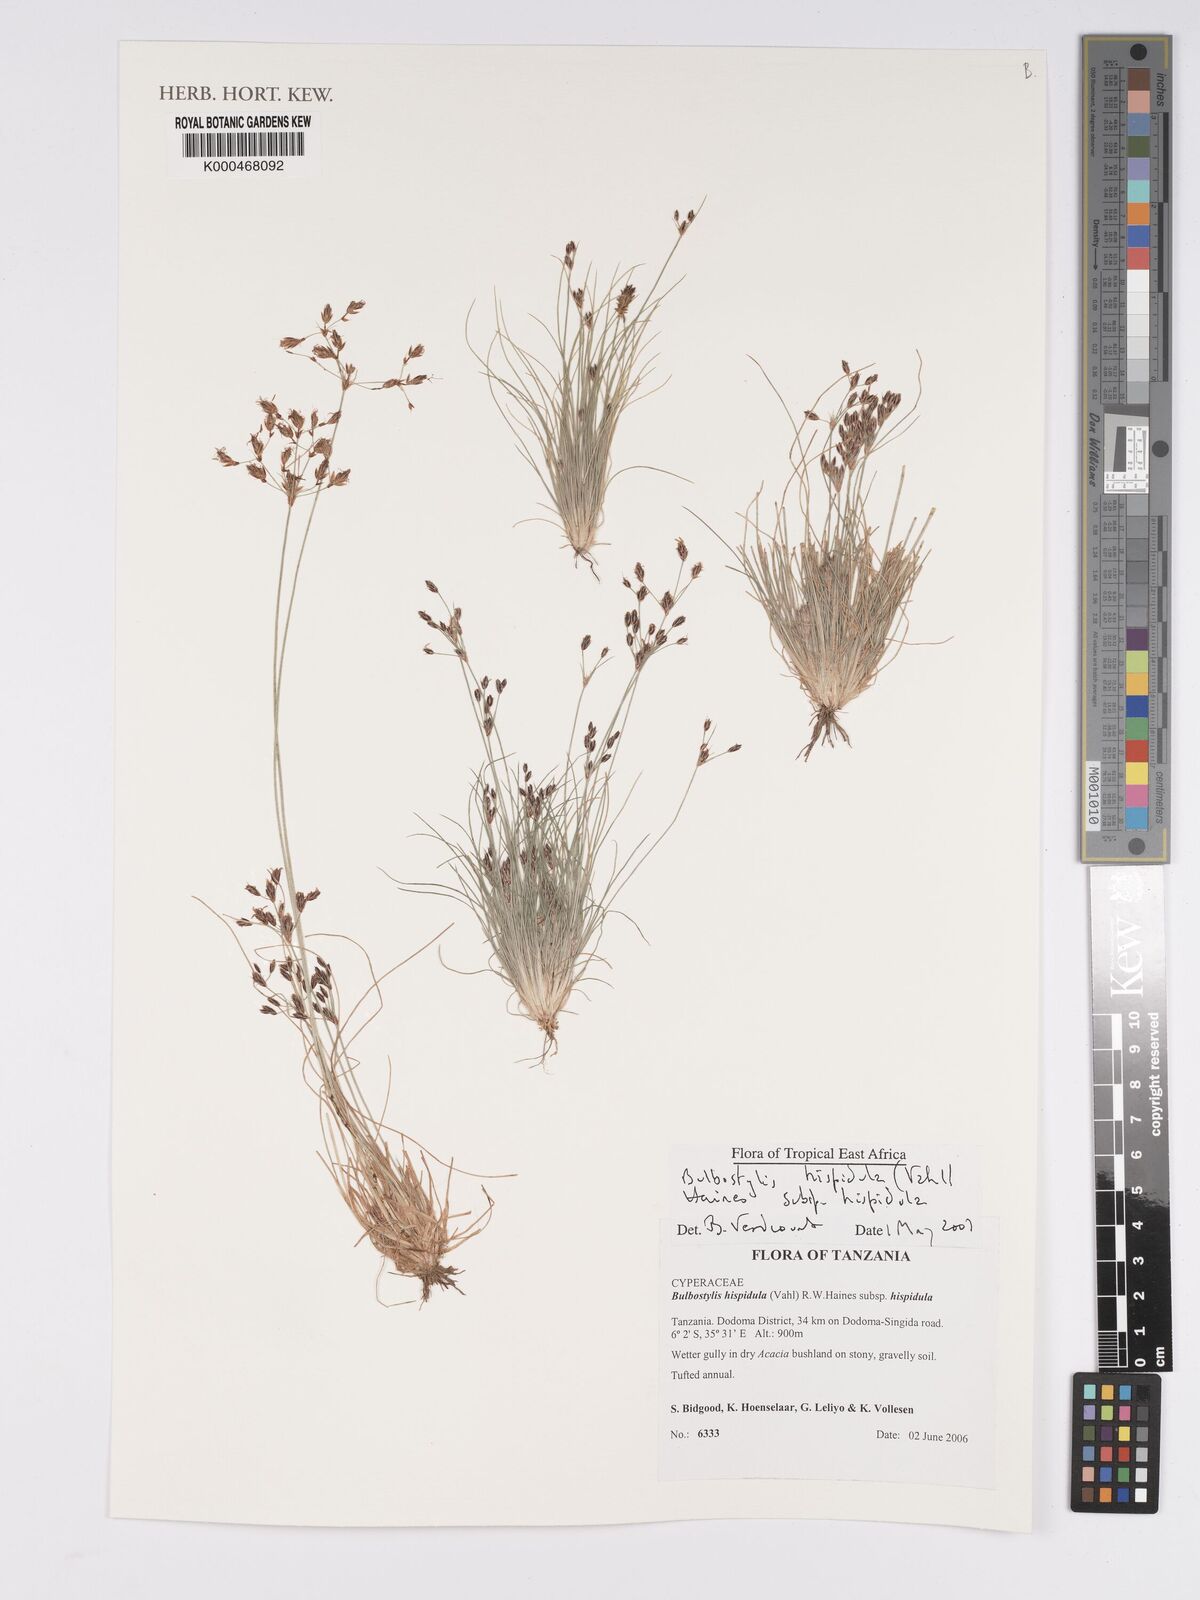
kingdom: Plantae
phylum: Tracheophyta
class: Liliopsida
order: Poales
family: Cyperaceae
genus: Bulbostylis
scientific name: Bulbostylis hispidula
